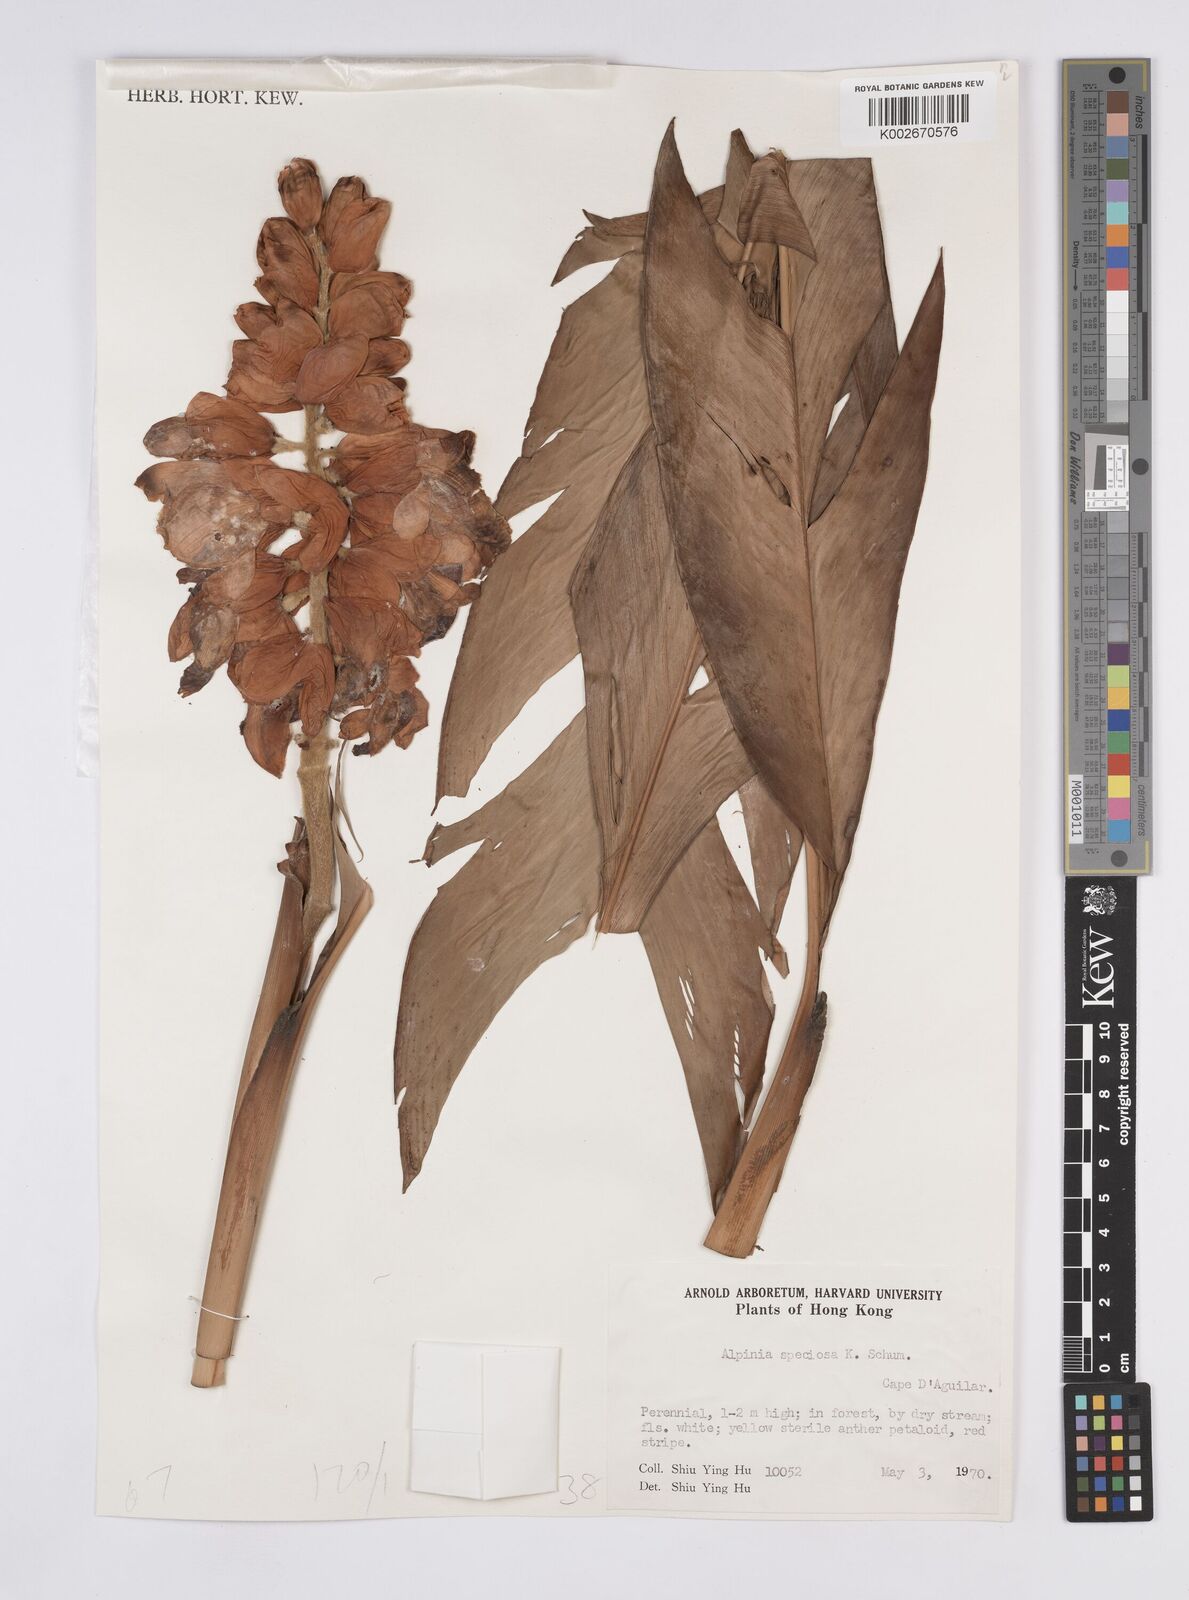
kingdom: Plantae
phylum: Tracheophyta
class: Liliopsida
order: Zingiberales
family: Zingiberaceae
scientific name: Zingiberaceae
